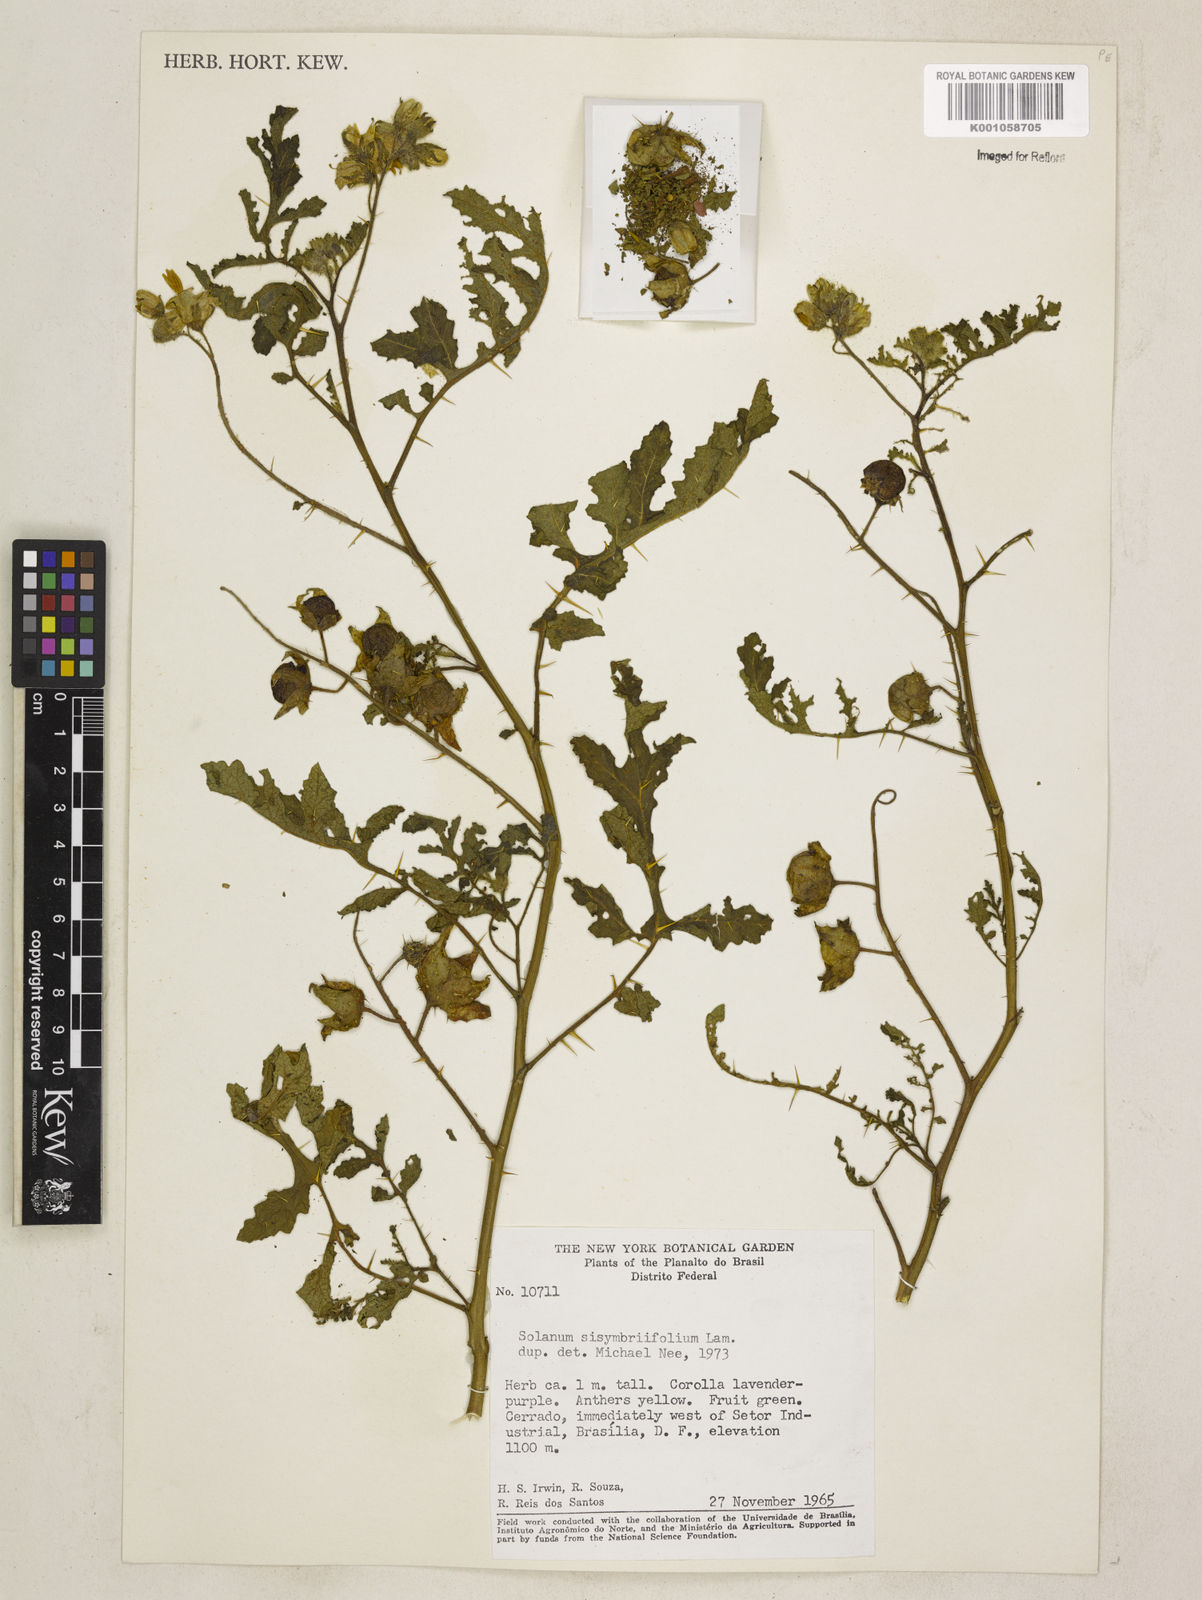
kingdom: Plantae
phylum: Tracheophyta
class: Magnoliopsida
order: Solanales
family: Solanaceae
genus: Solanum
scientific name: Solanum sisymbriifolium
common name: Red buffalo-bur
